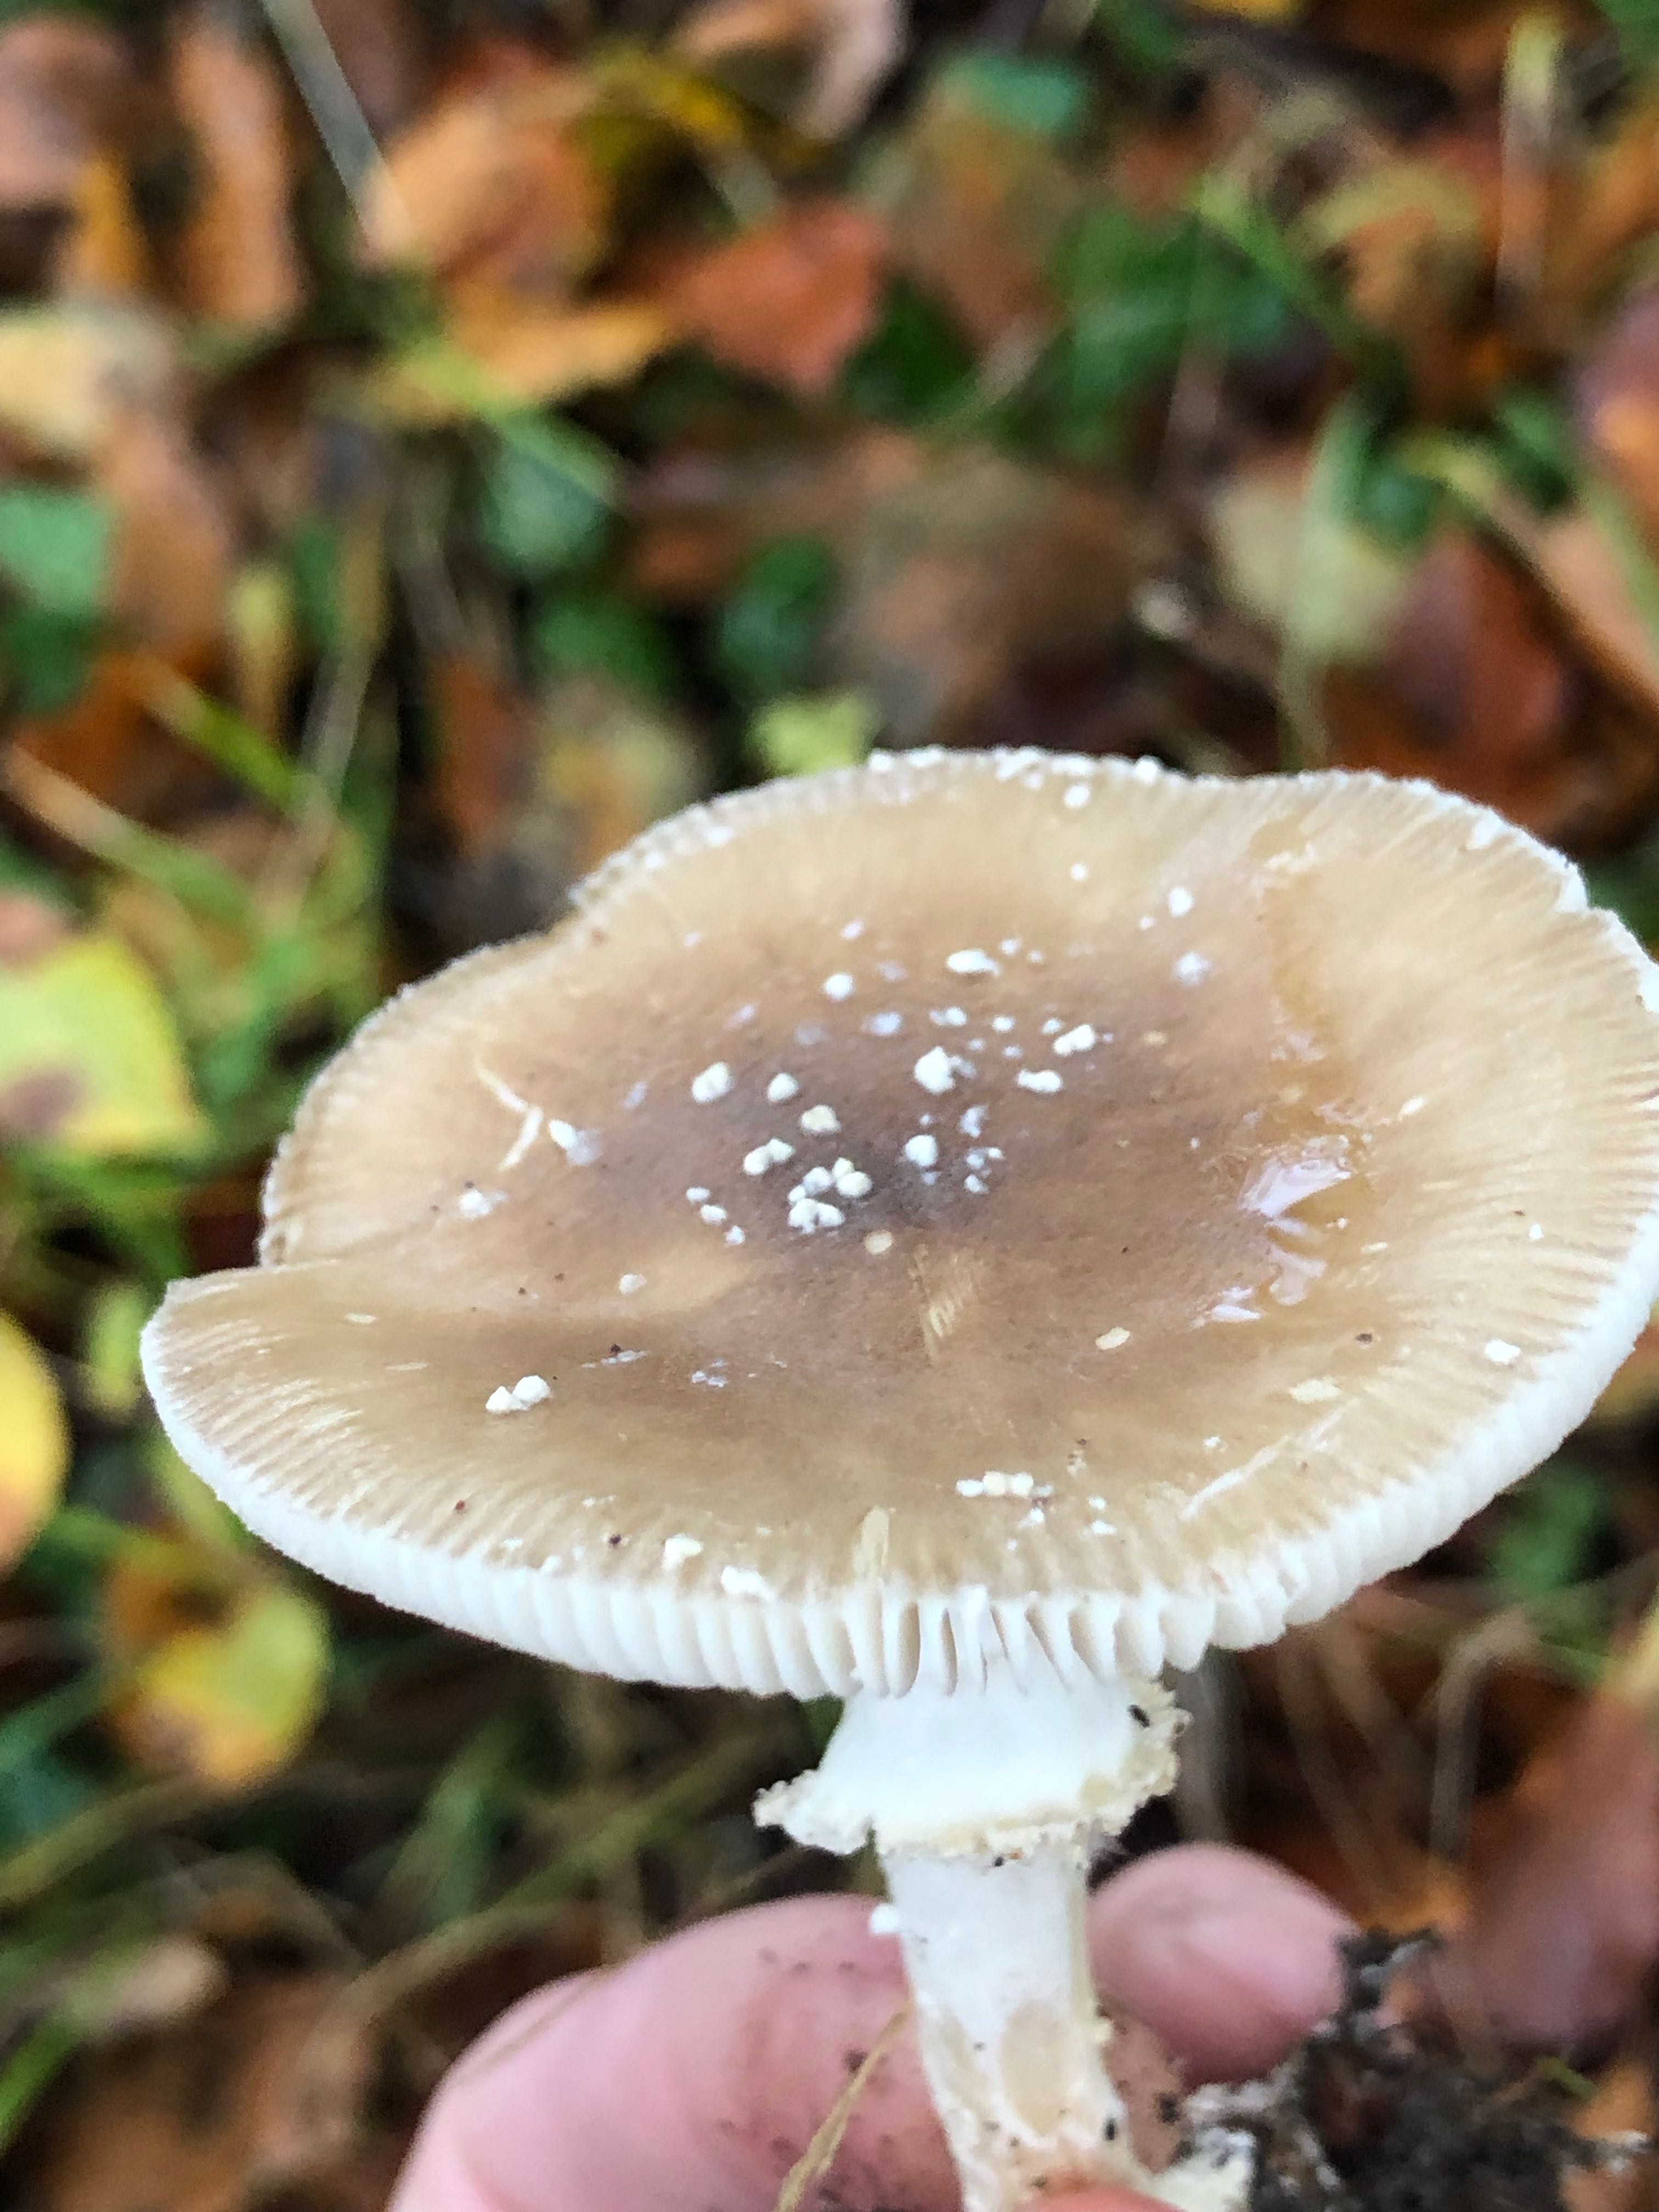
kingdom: Fungi
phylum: Basidiomycota
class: Agaricomycetes
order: Agaricales
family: Amanitaceae
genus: Amanita
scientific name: Amanita pantherina
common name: panter-fluesvamp
